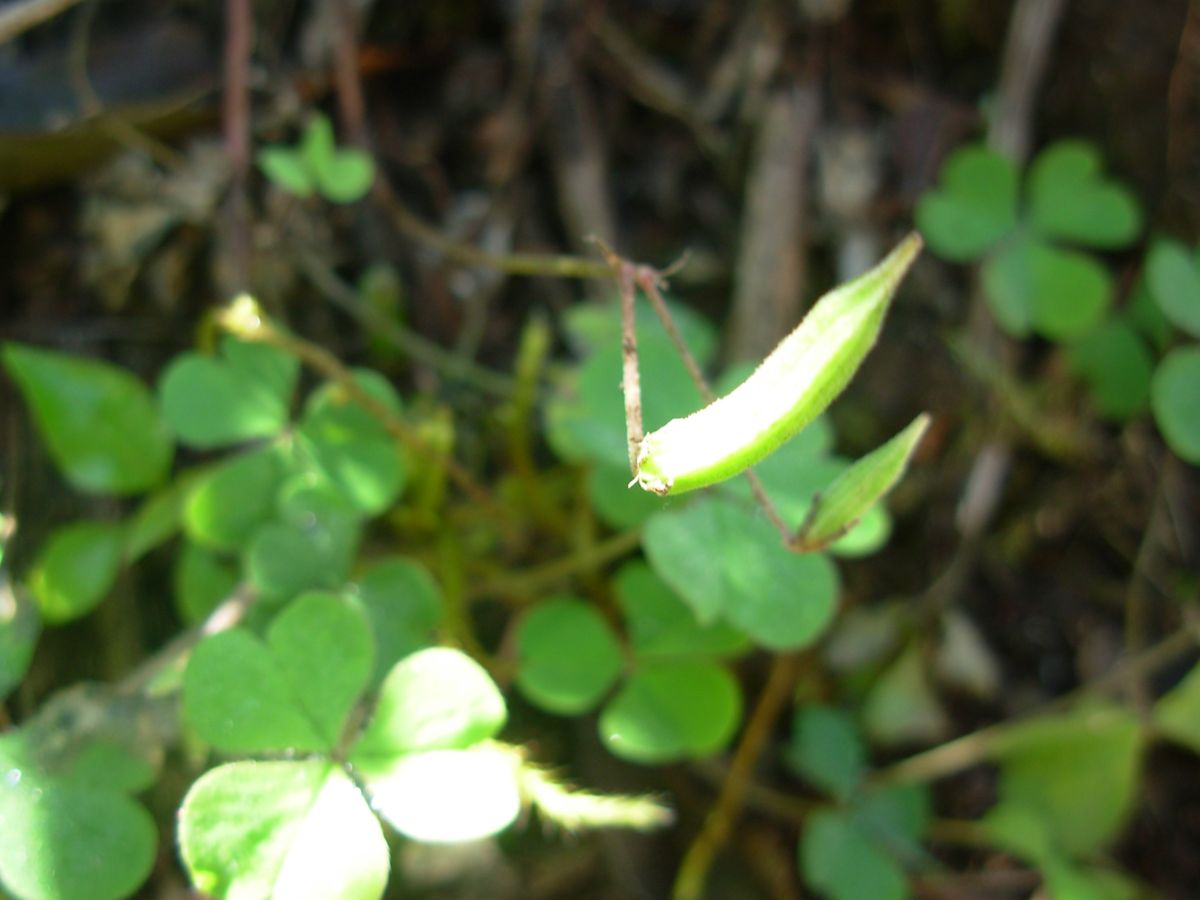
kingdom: Plantae
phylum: Tracheophyta
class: Magnoliopsida
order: Oxalidales
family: Oxalidaceae
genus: Oxalis
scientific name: Oxalis corniculata
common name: Procumbent yellow-sorrel
